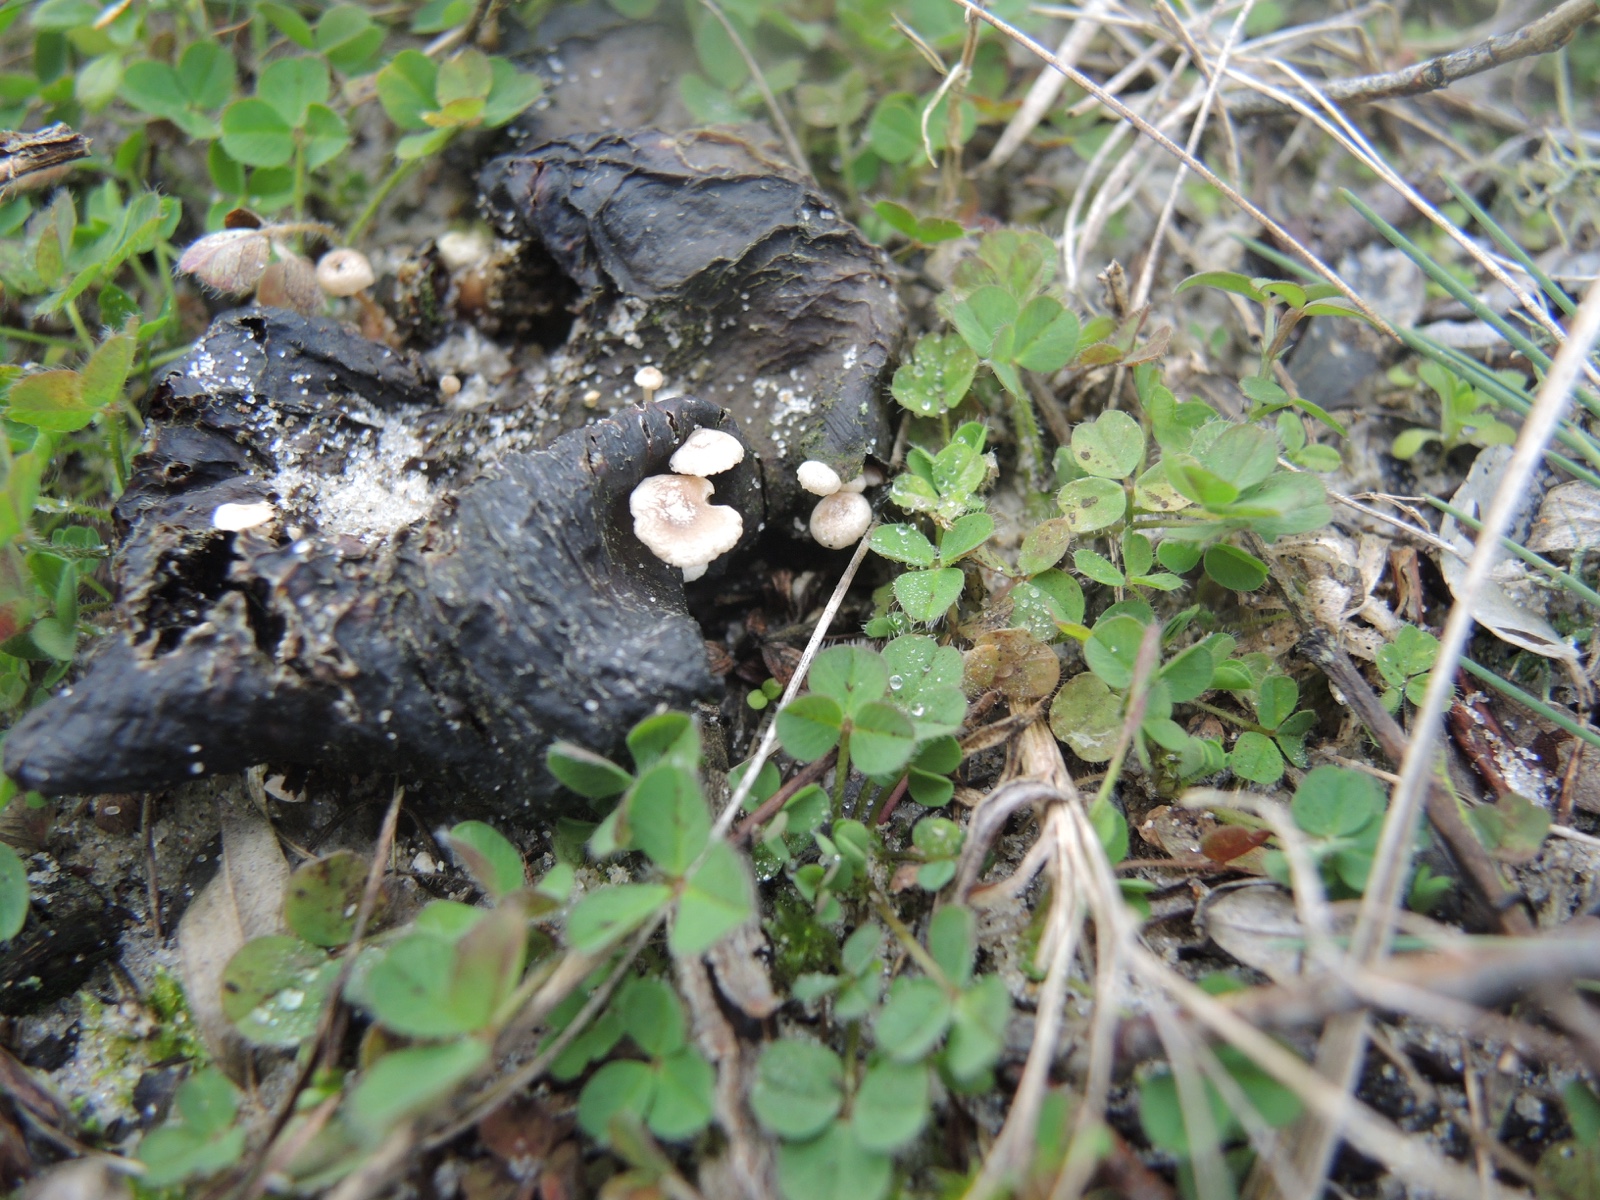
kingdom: Fungi
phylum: Basidiomycota
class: Agaricomycetes
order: Agaricales
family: Tricholomataceae
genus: Collybia
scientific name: Collybia cirrhata
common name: silke-lighat
